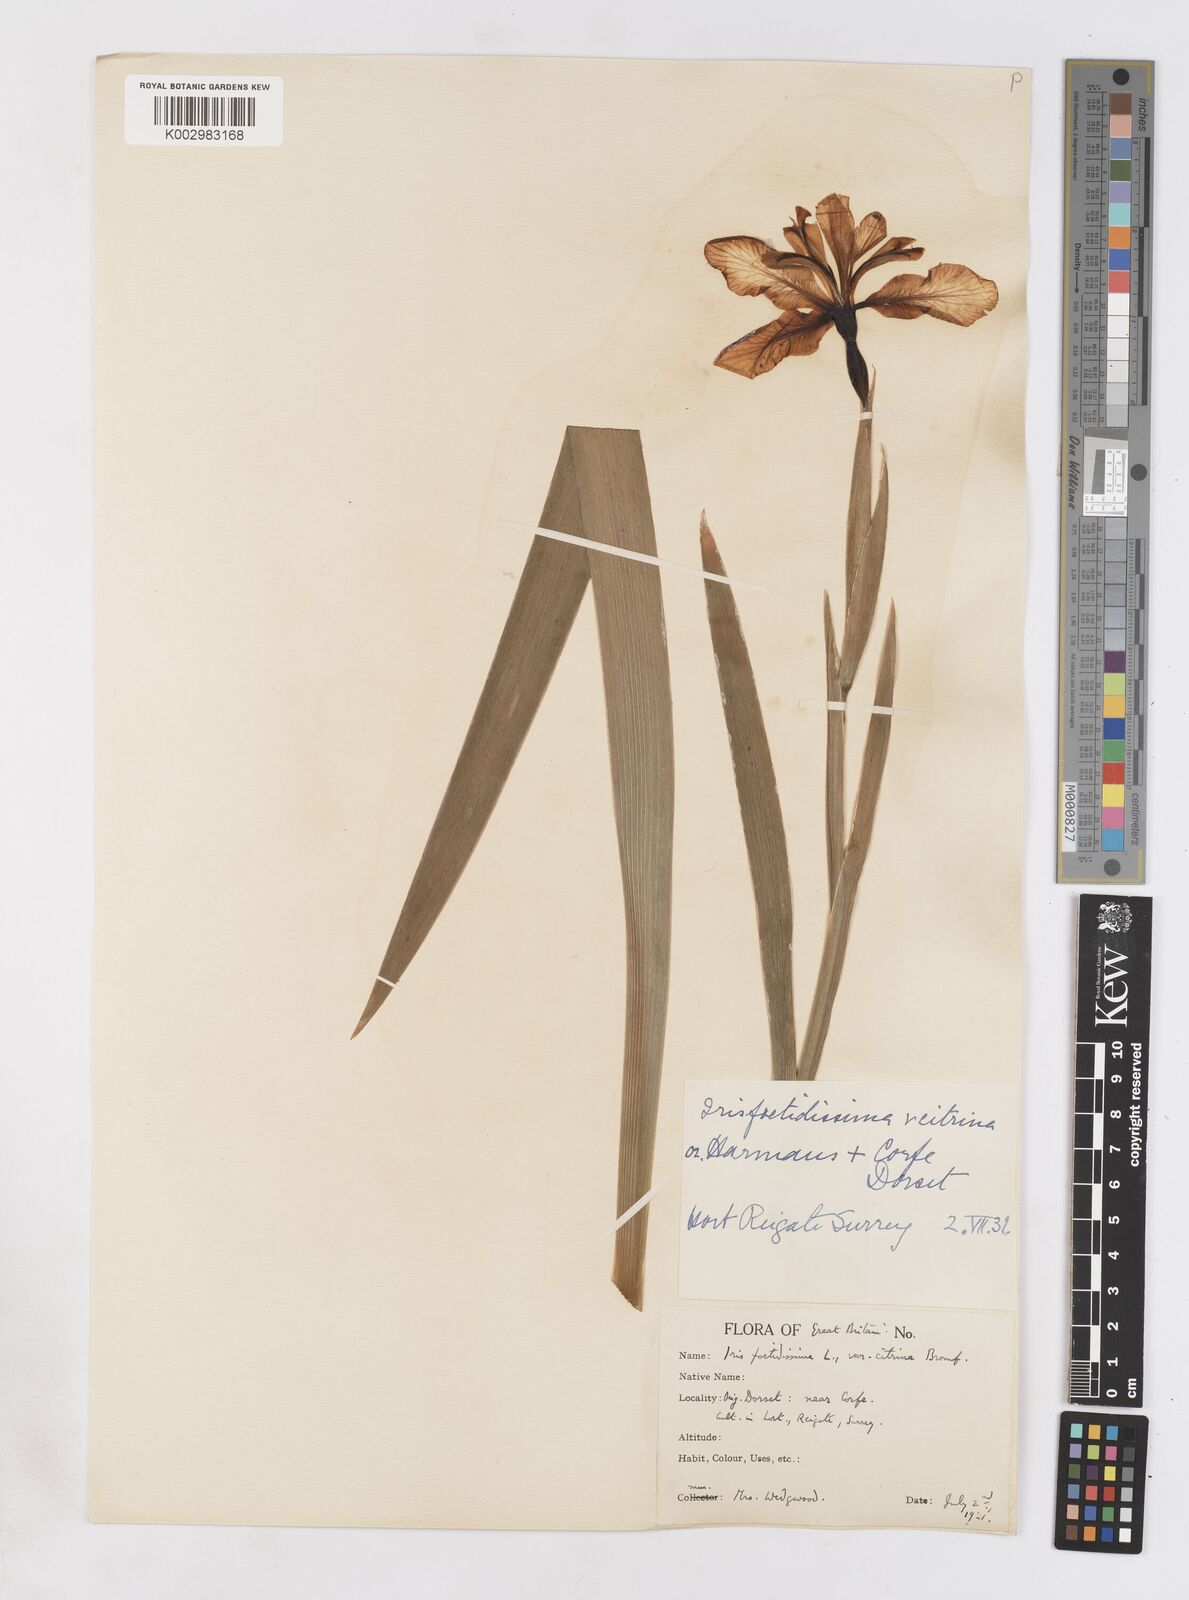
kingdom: Plantae
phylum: Tracheophyta
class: Liliopsida
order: Asparagales
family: Iridaceae
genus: Iris
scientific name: Iris foetidissima
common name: Stinking iris
